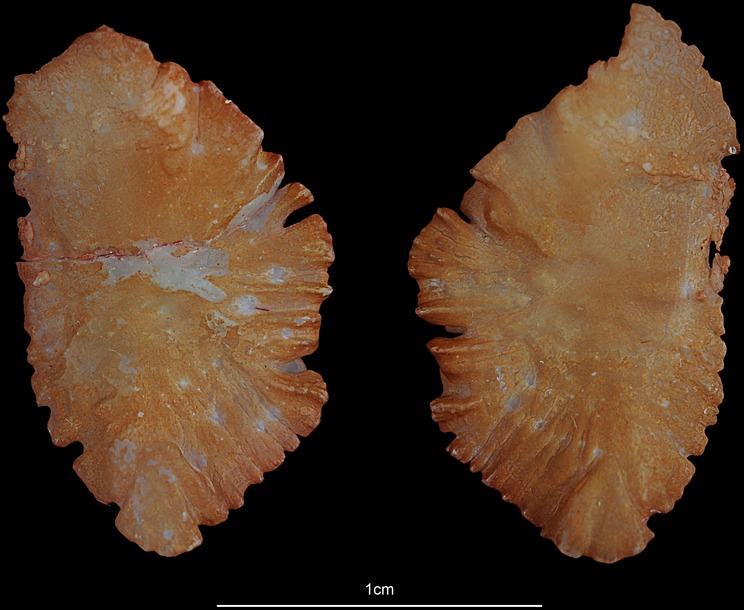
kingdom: Animalia
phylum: Chordata
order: Perciformes
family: Sparidae
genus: Argyrops
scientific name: Argyrops spinifer
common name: King soldier bream
